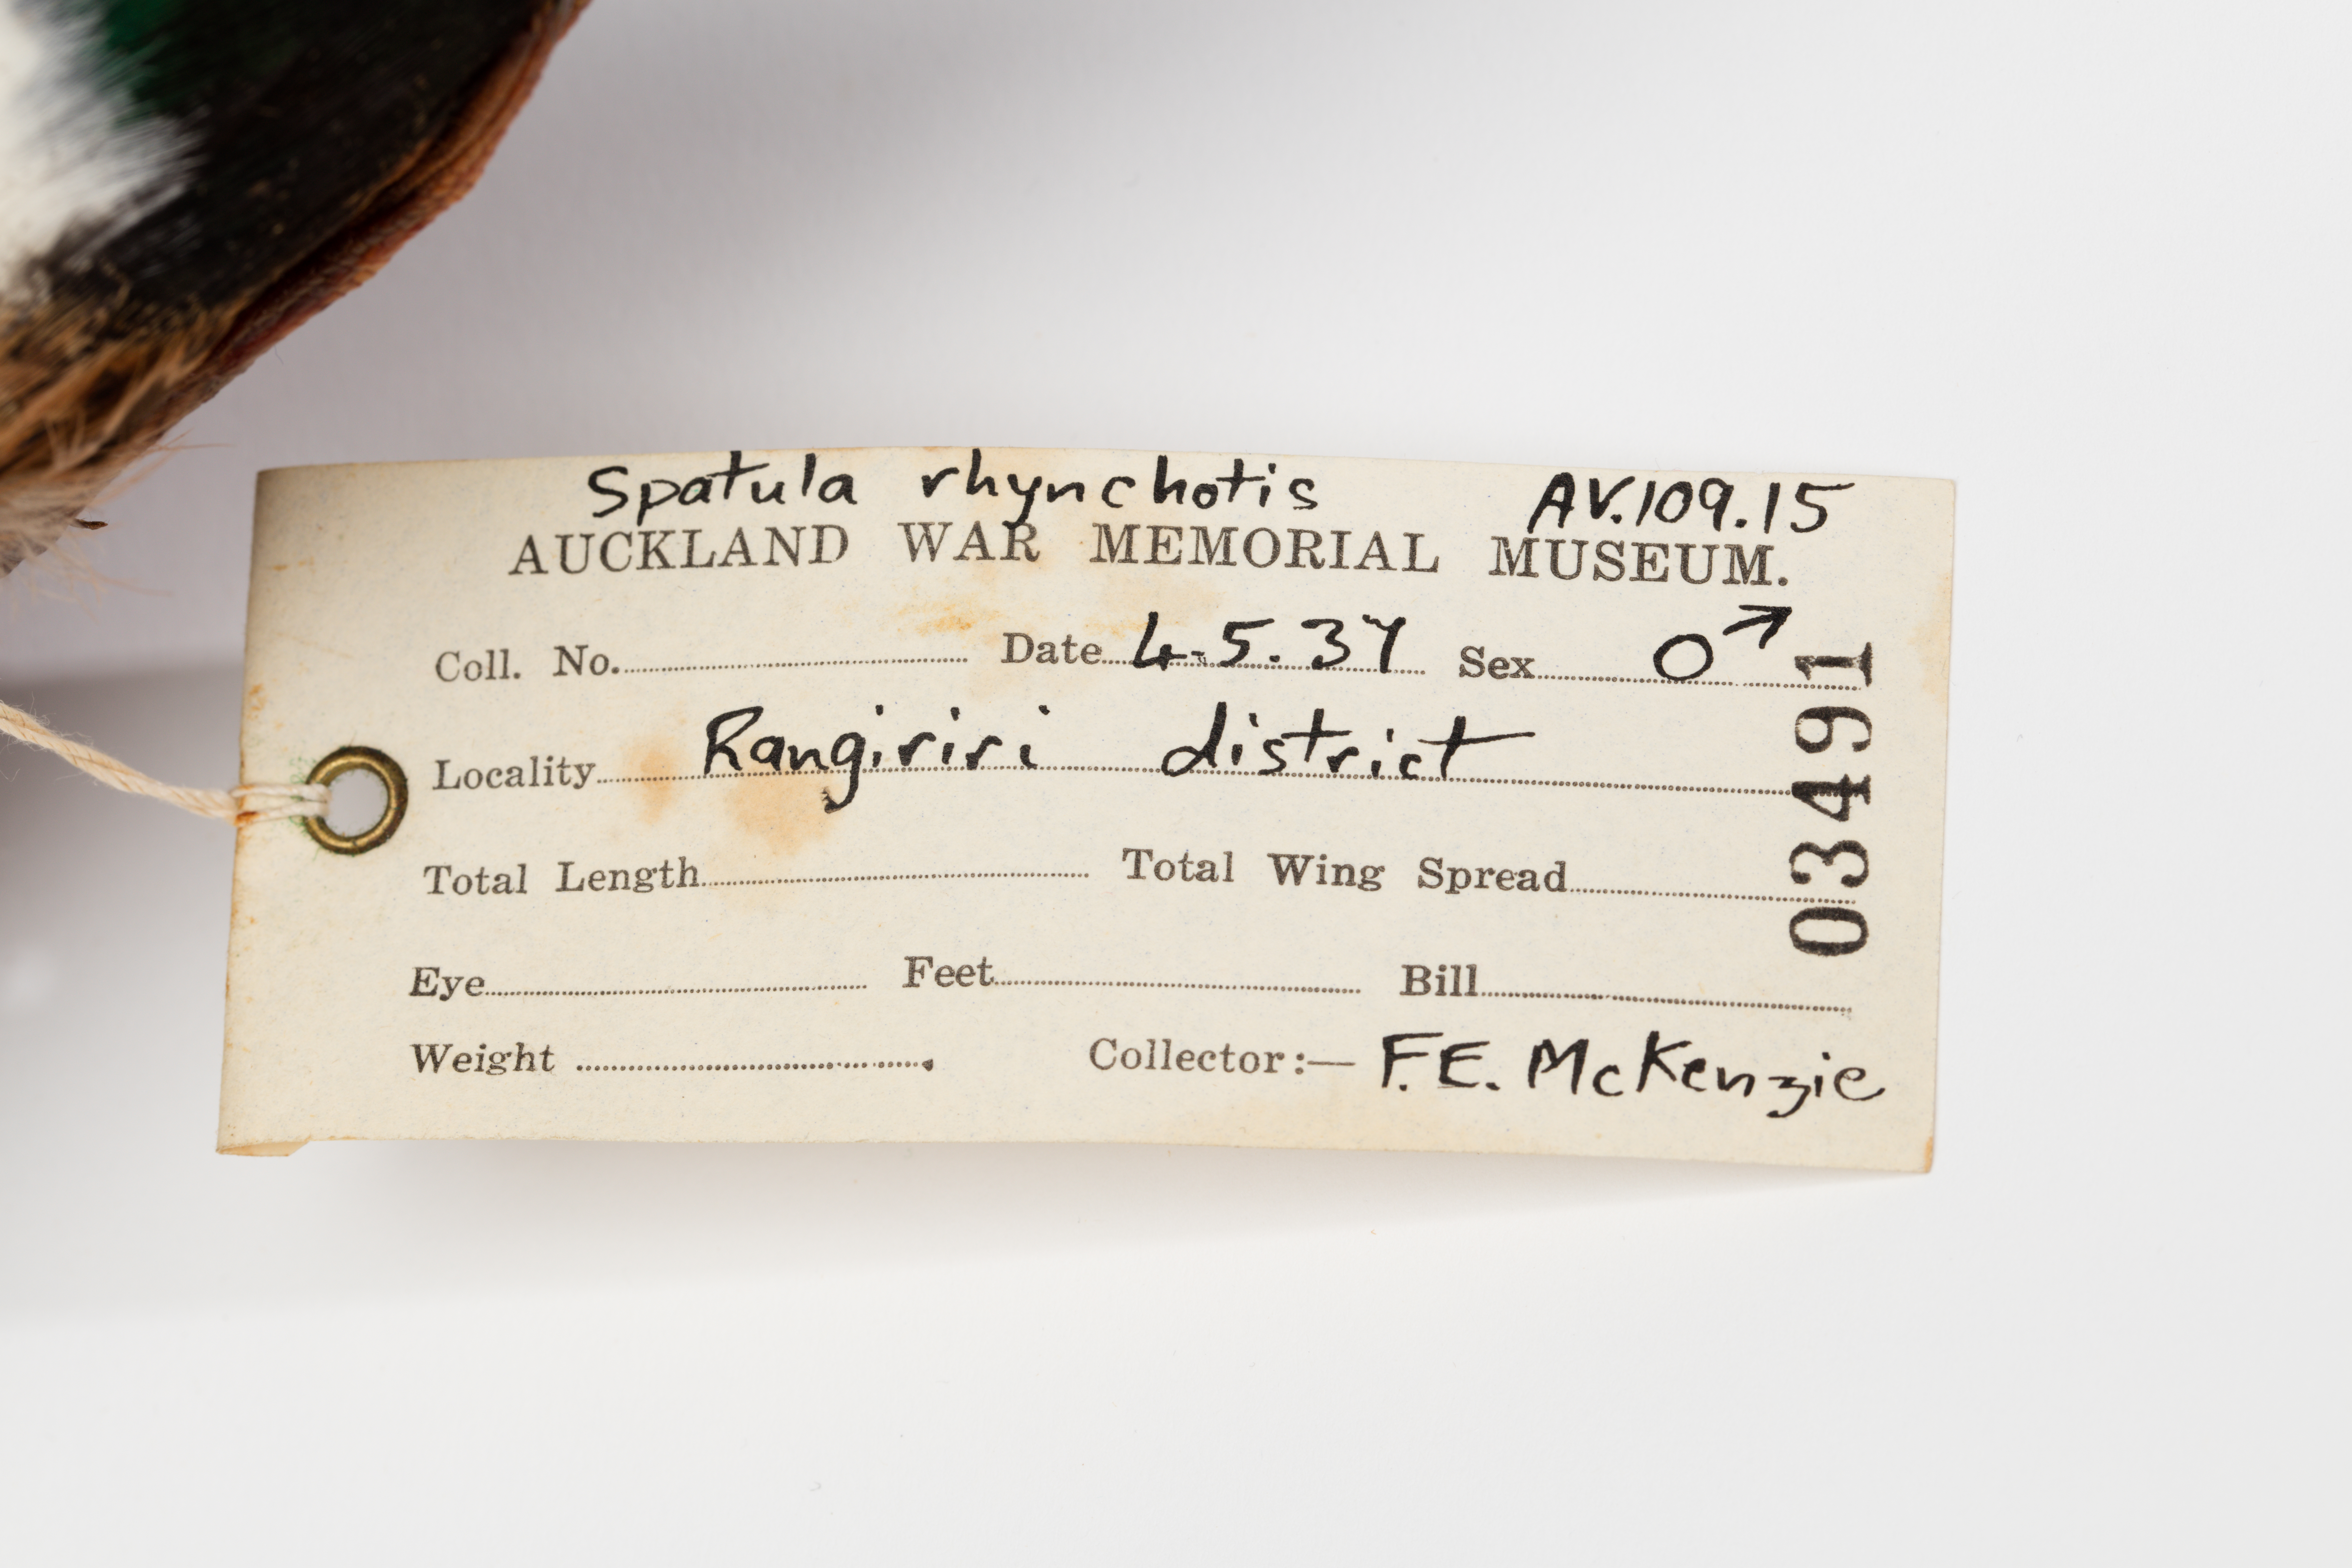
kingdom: Animalia
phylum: Chordata
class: Aves
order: Anseriformes
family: Anatidae
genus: Spatula
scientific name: Spatula rhynchotis
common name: Australian shoveler
